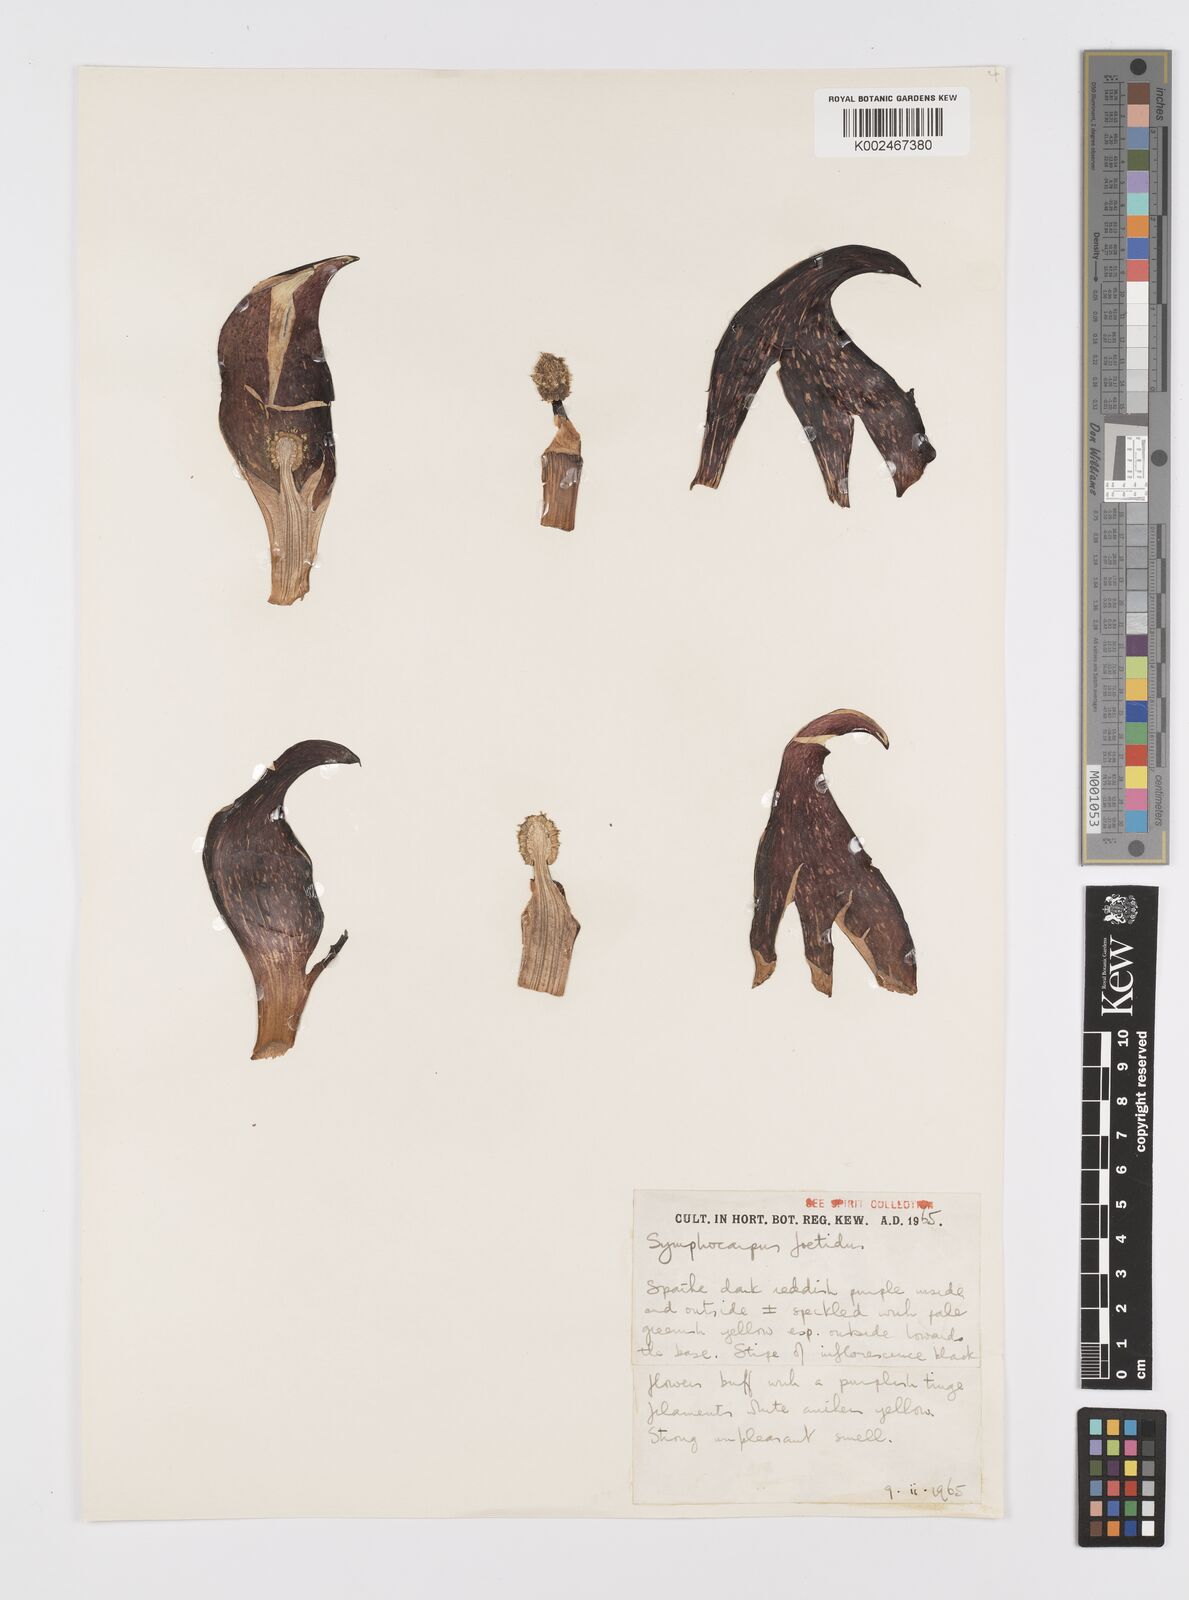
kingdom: Plantae
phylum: Tracheophyta
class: Liliopsida
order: Alismatales
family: Araceae
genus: Symplocarpus
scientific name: Symplocarpus foetidus
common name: Eastern skunk cabbage
